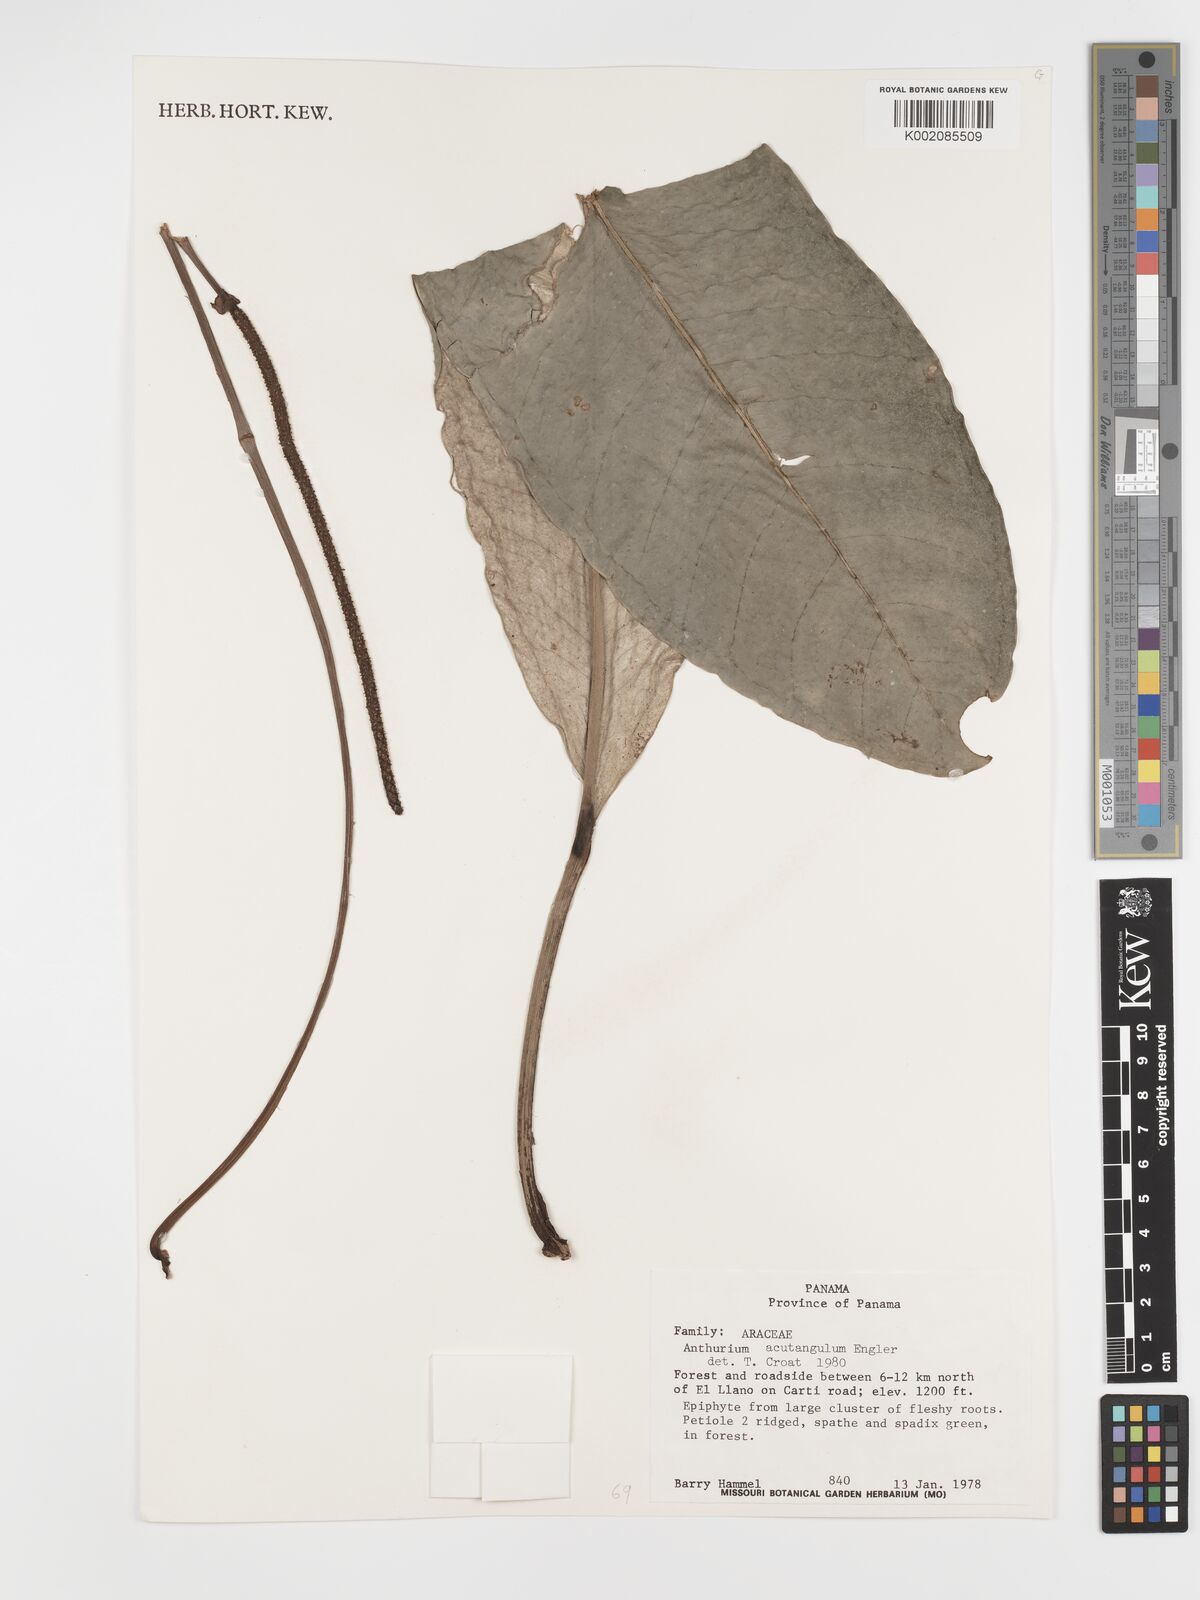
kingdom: Plantae
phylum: Tracheophyta
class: Liliopsida
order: Alismatales
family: Araceae
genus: Anthurium
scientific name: Anthurium acutangulum
